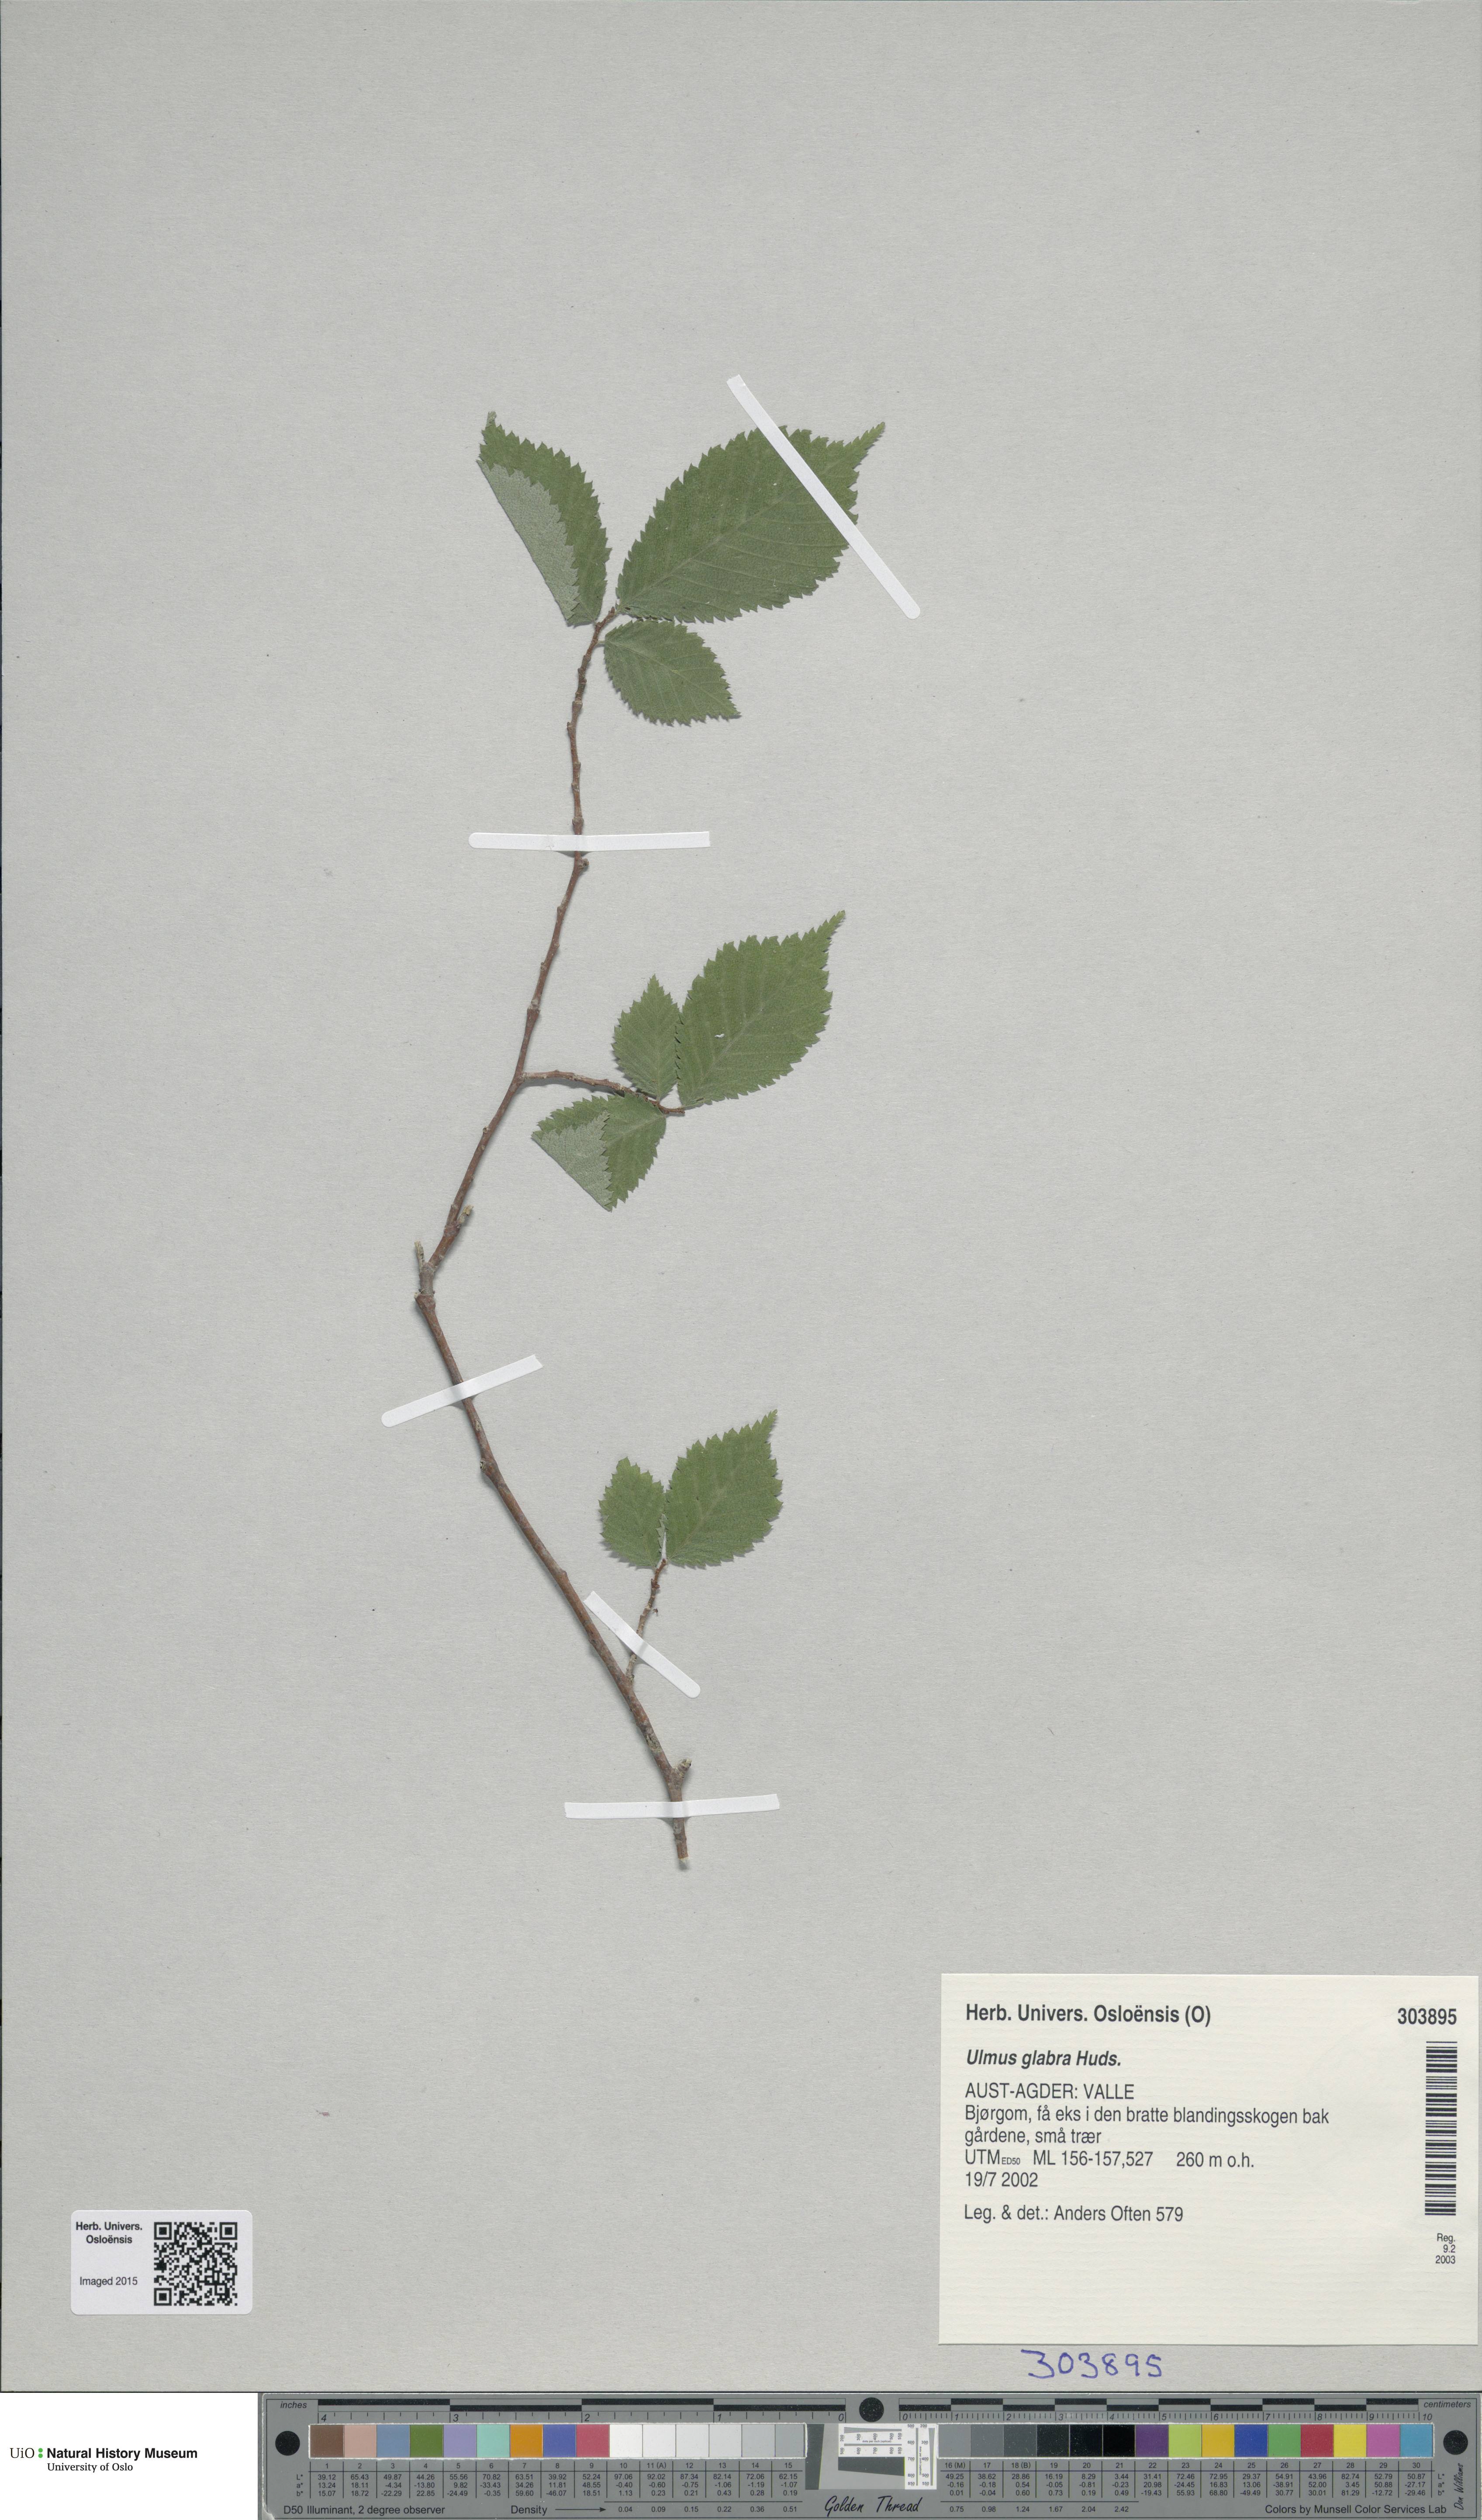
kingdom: Plantae
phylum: Tracheophyta
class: Magnoliopsida
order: Rosales
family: Ulmaceae
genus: Ulmus
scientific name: Ulmus glabra
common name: Wych elm
